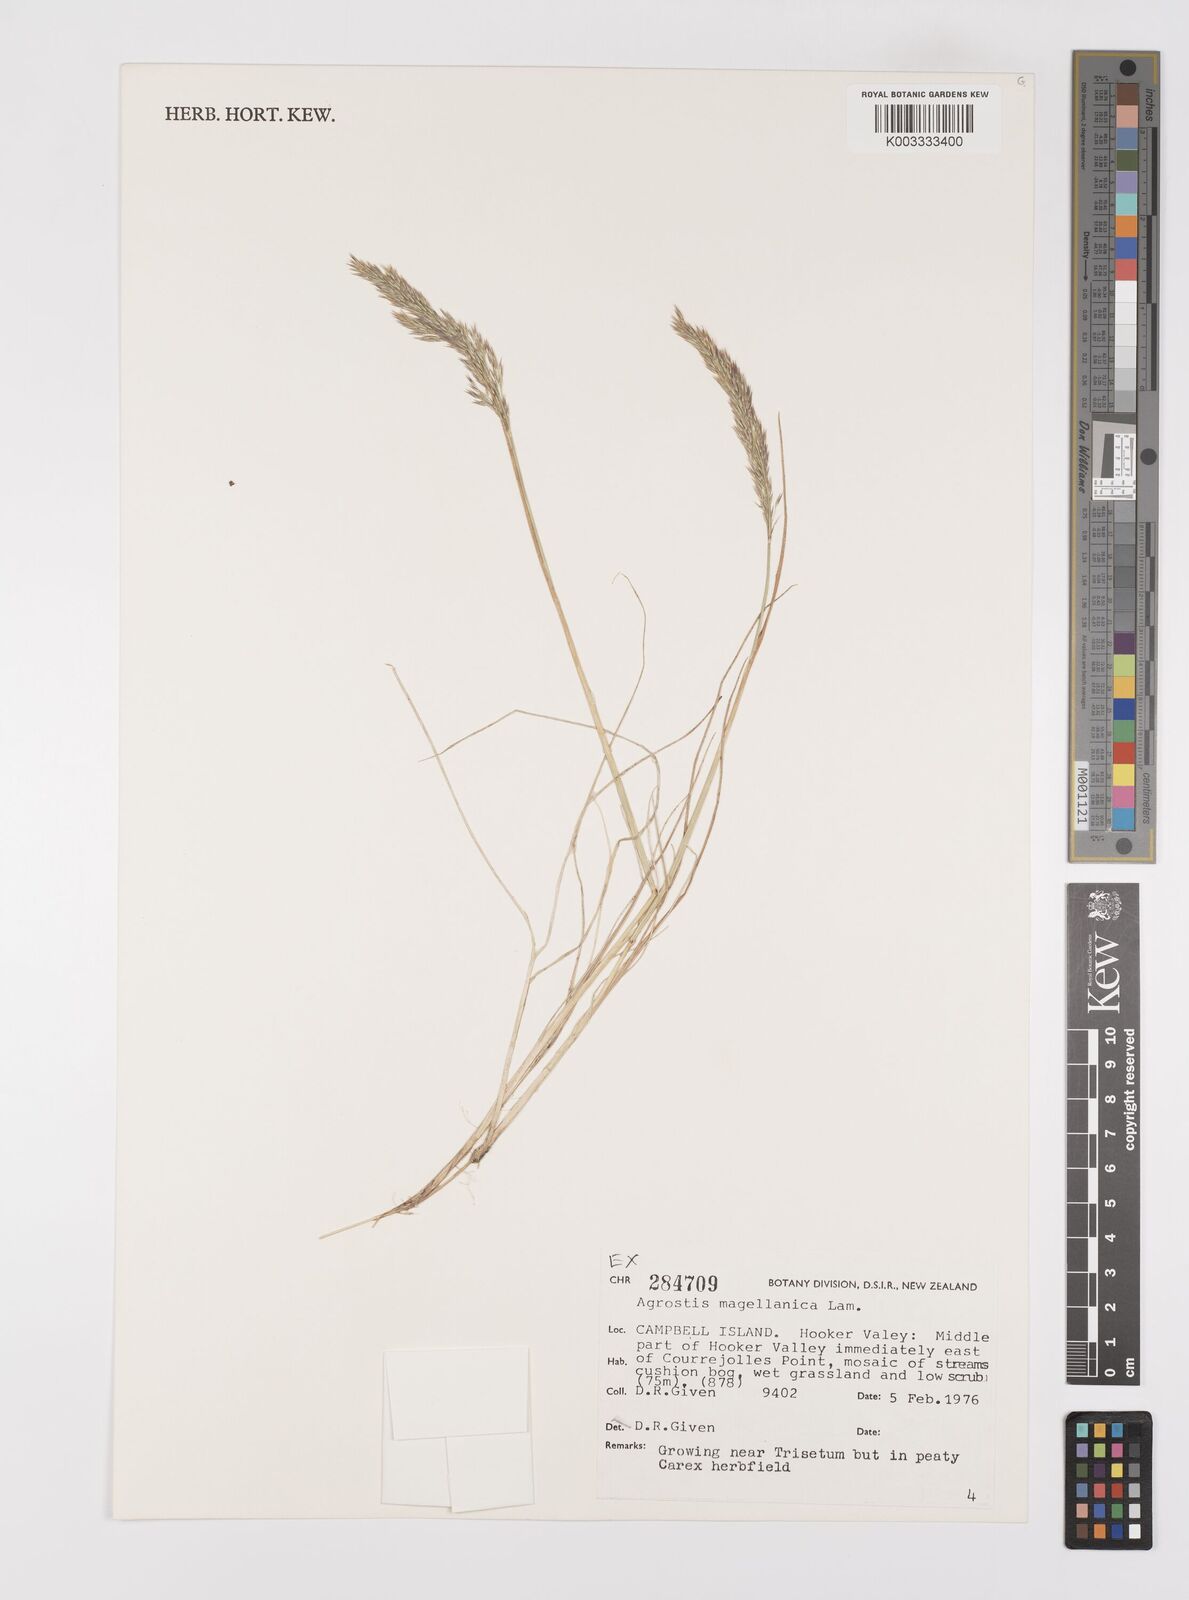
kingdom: Plantae
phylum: Tracheophyta
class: Liliopsida
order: Poales
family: Poaceae
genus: Polypogon
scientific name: Polypogon magellanicus
